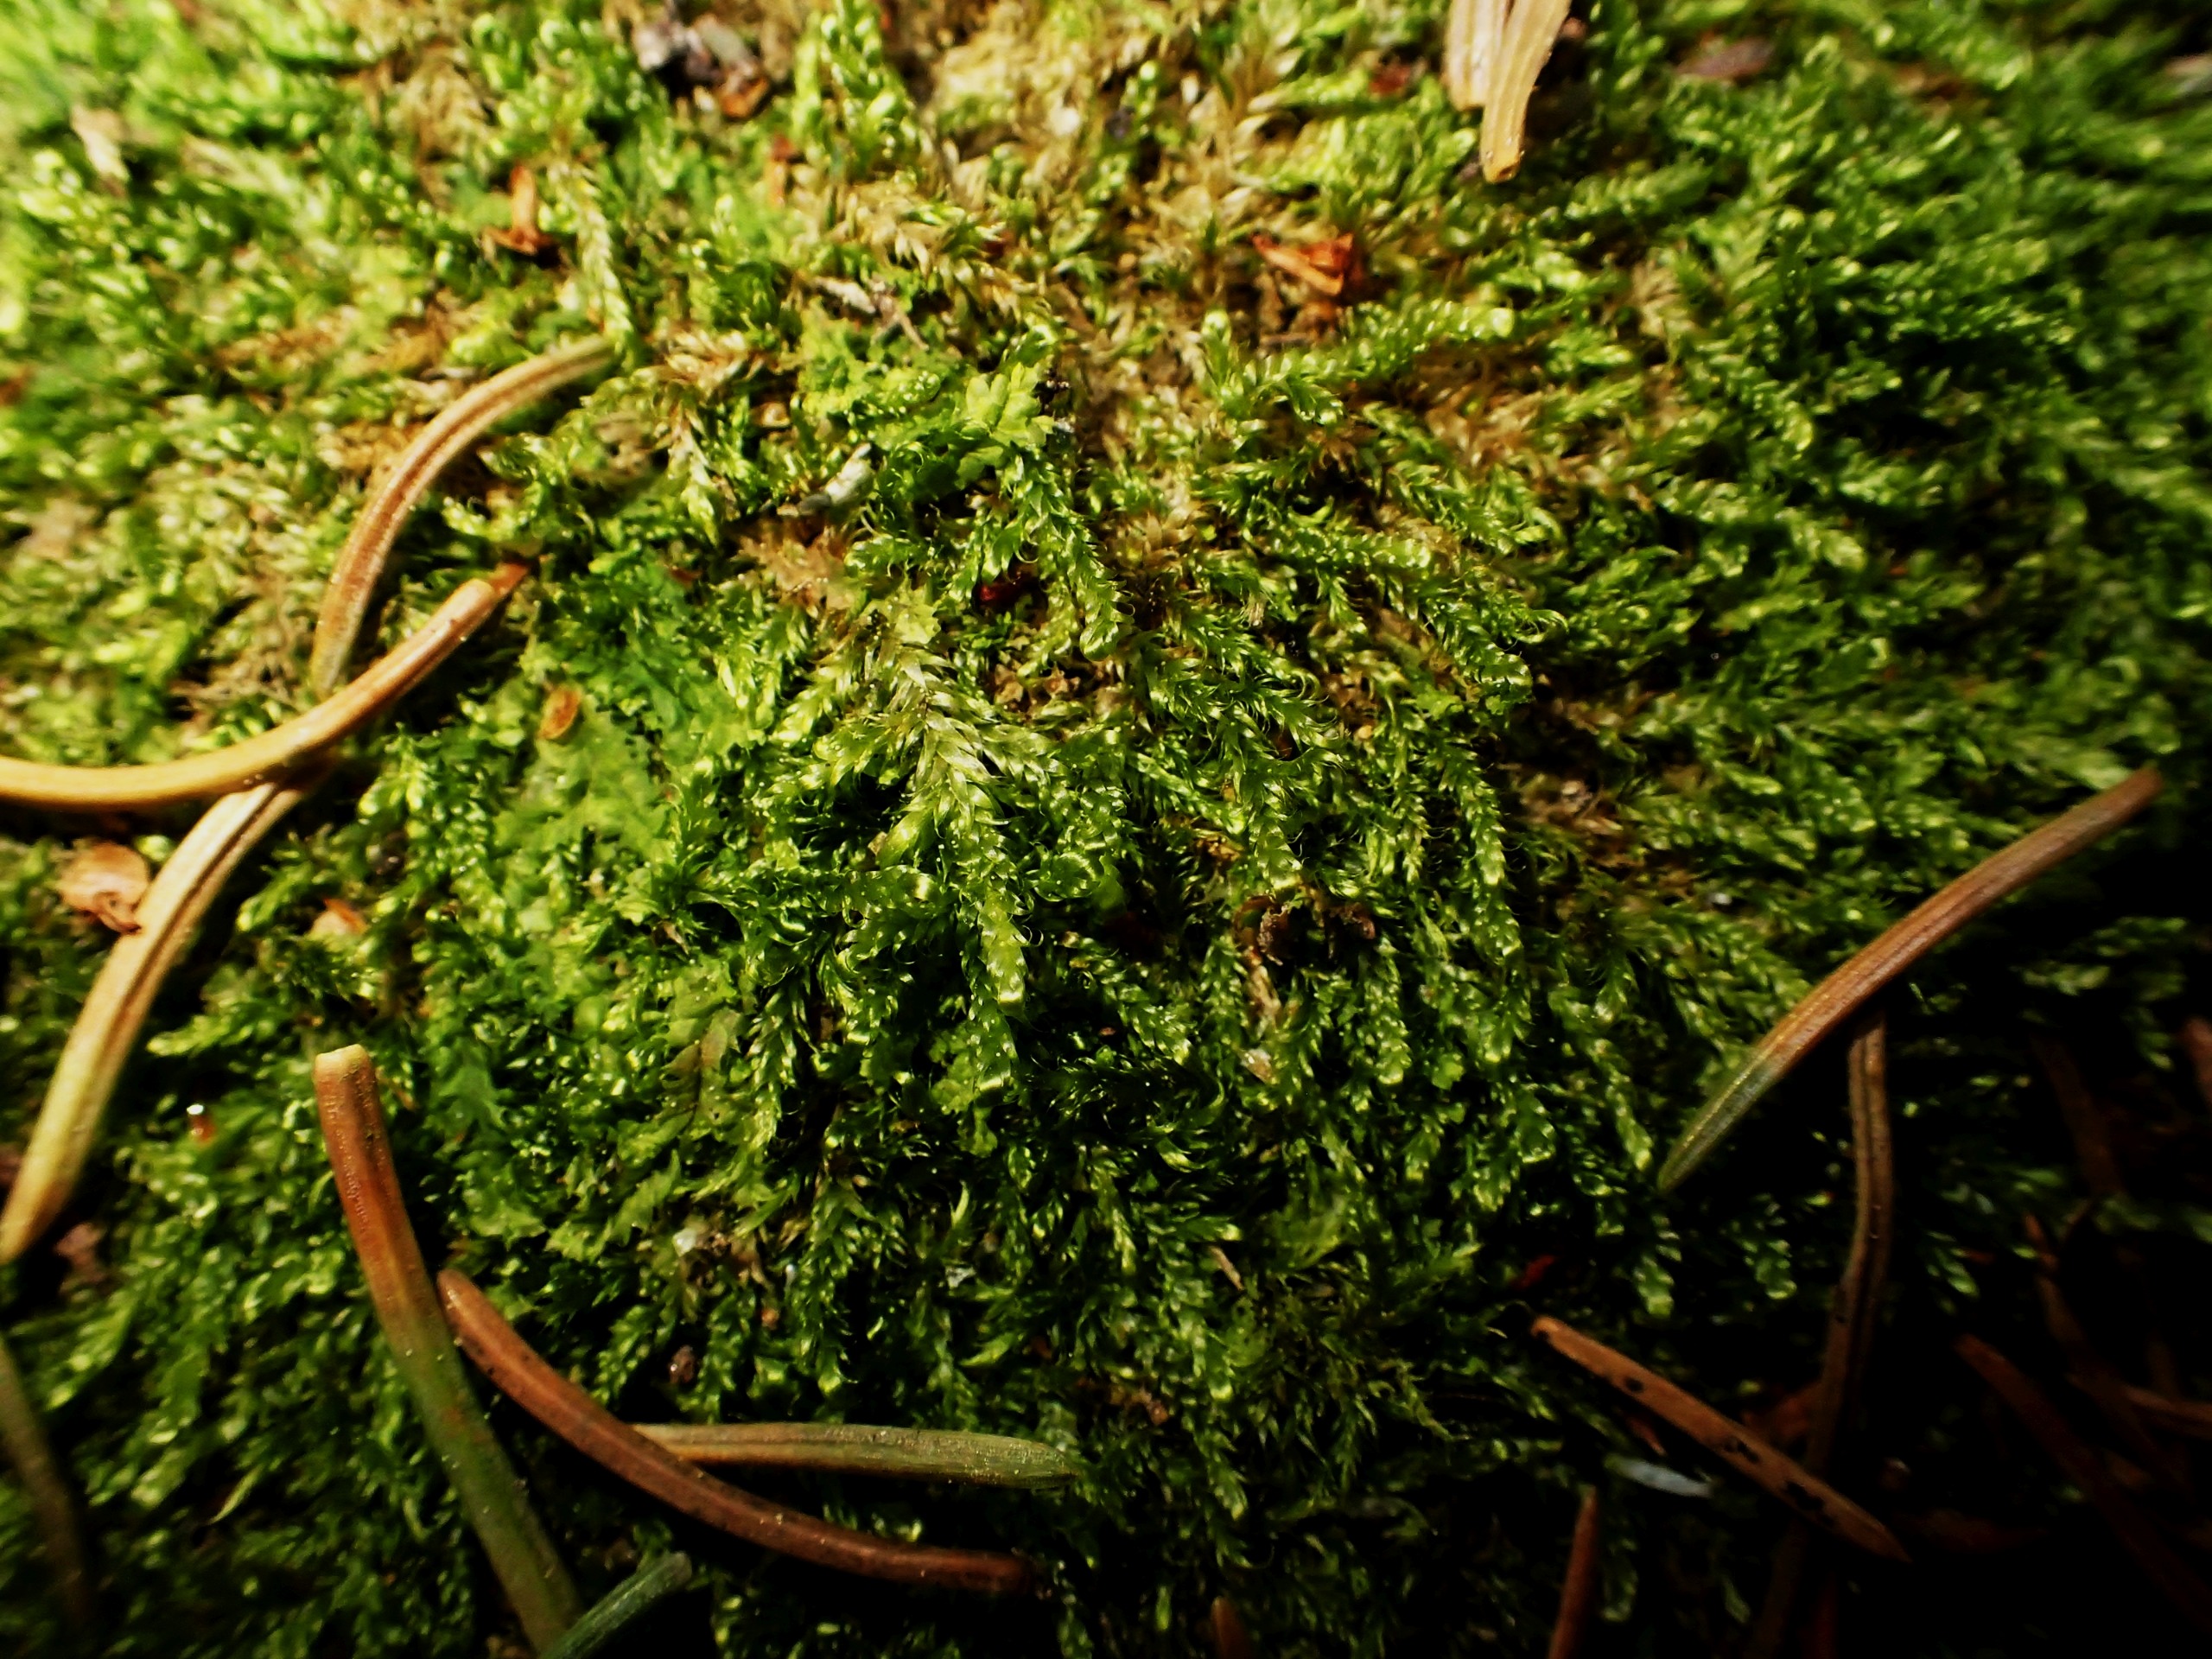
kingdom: Plantae
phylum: Marchantiophyta
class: Jungermanniopsida
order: Jungermanniales
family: Lophocoleaceae
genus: Lophocolea
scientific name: Lophocolea
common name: Kamsvøb
